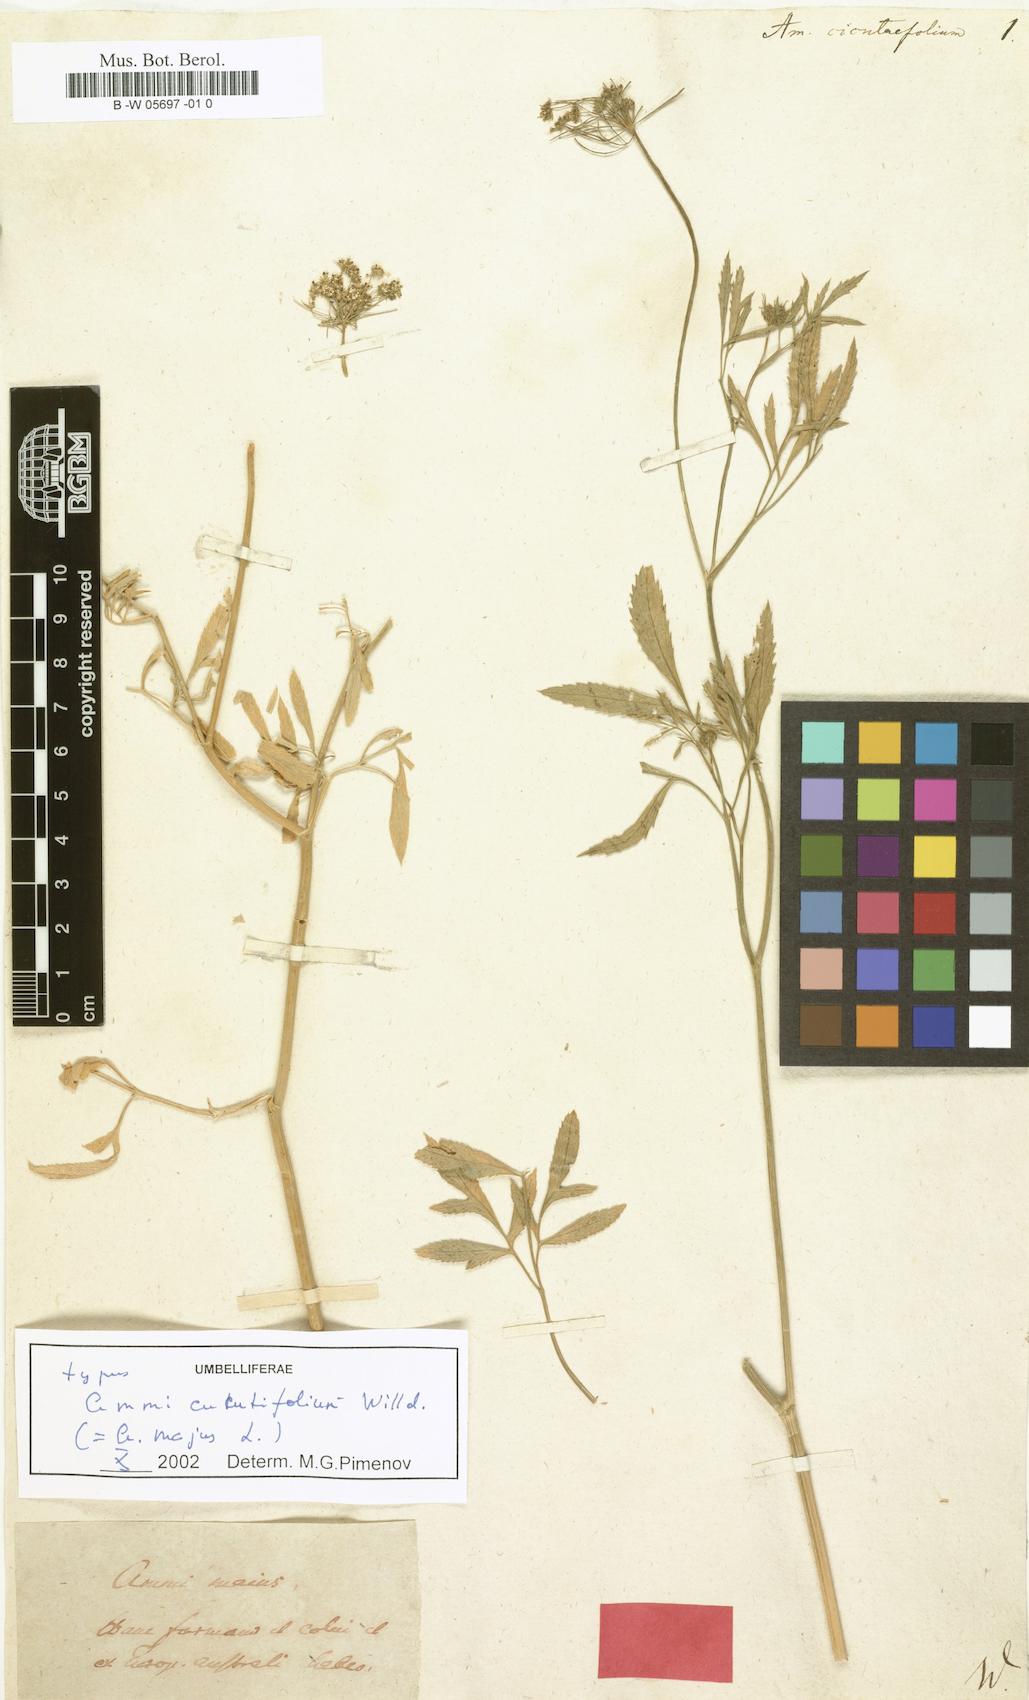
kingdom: Plantae
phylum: Tracheophyta
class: Magnoliopsida
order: Apiales
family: Apiaceae
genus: Ammi
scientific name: Ammi majus
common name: Bullwort
